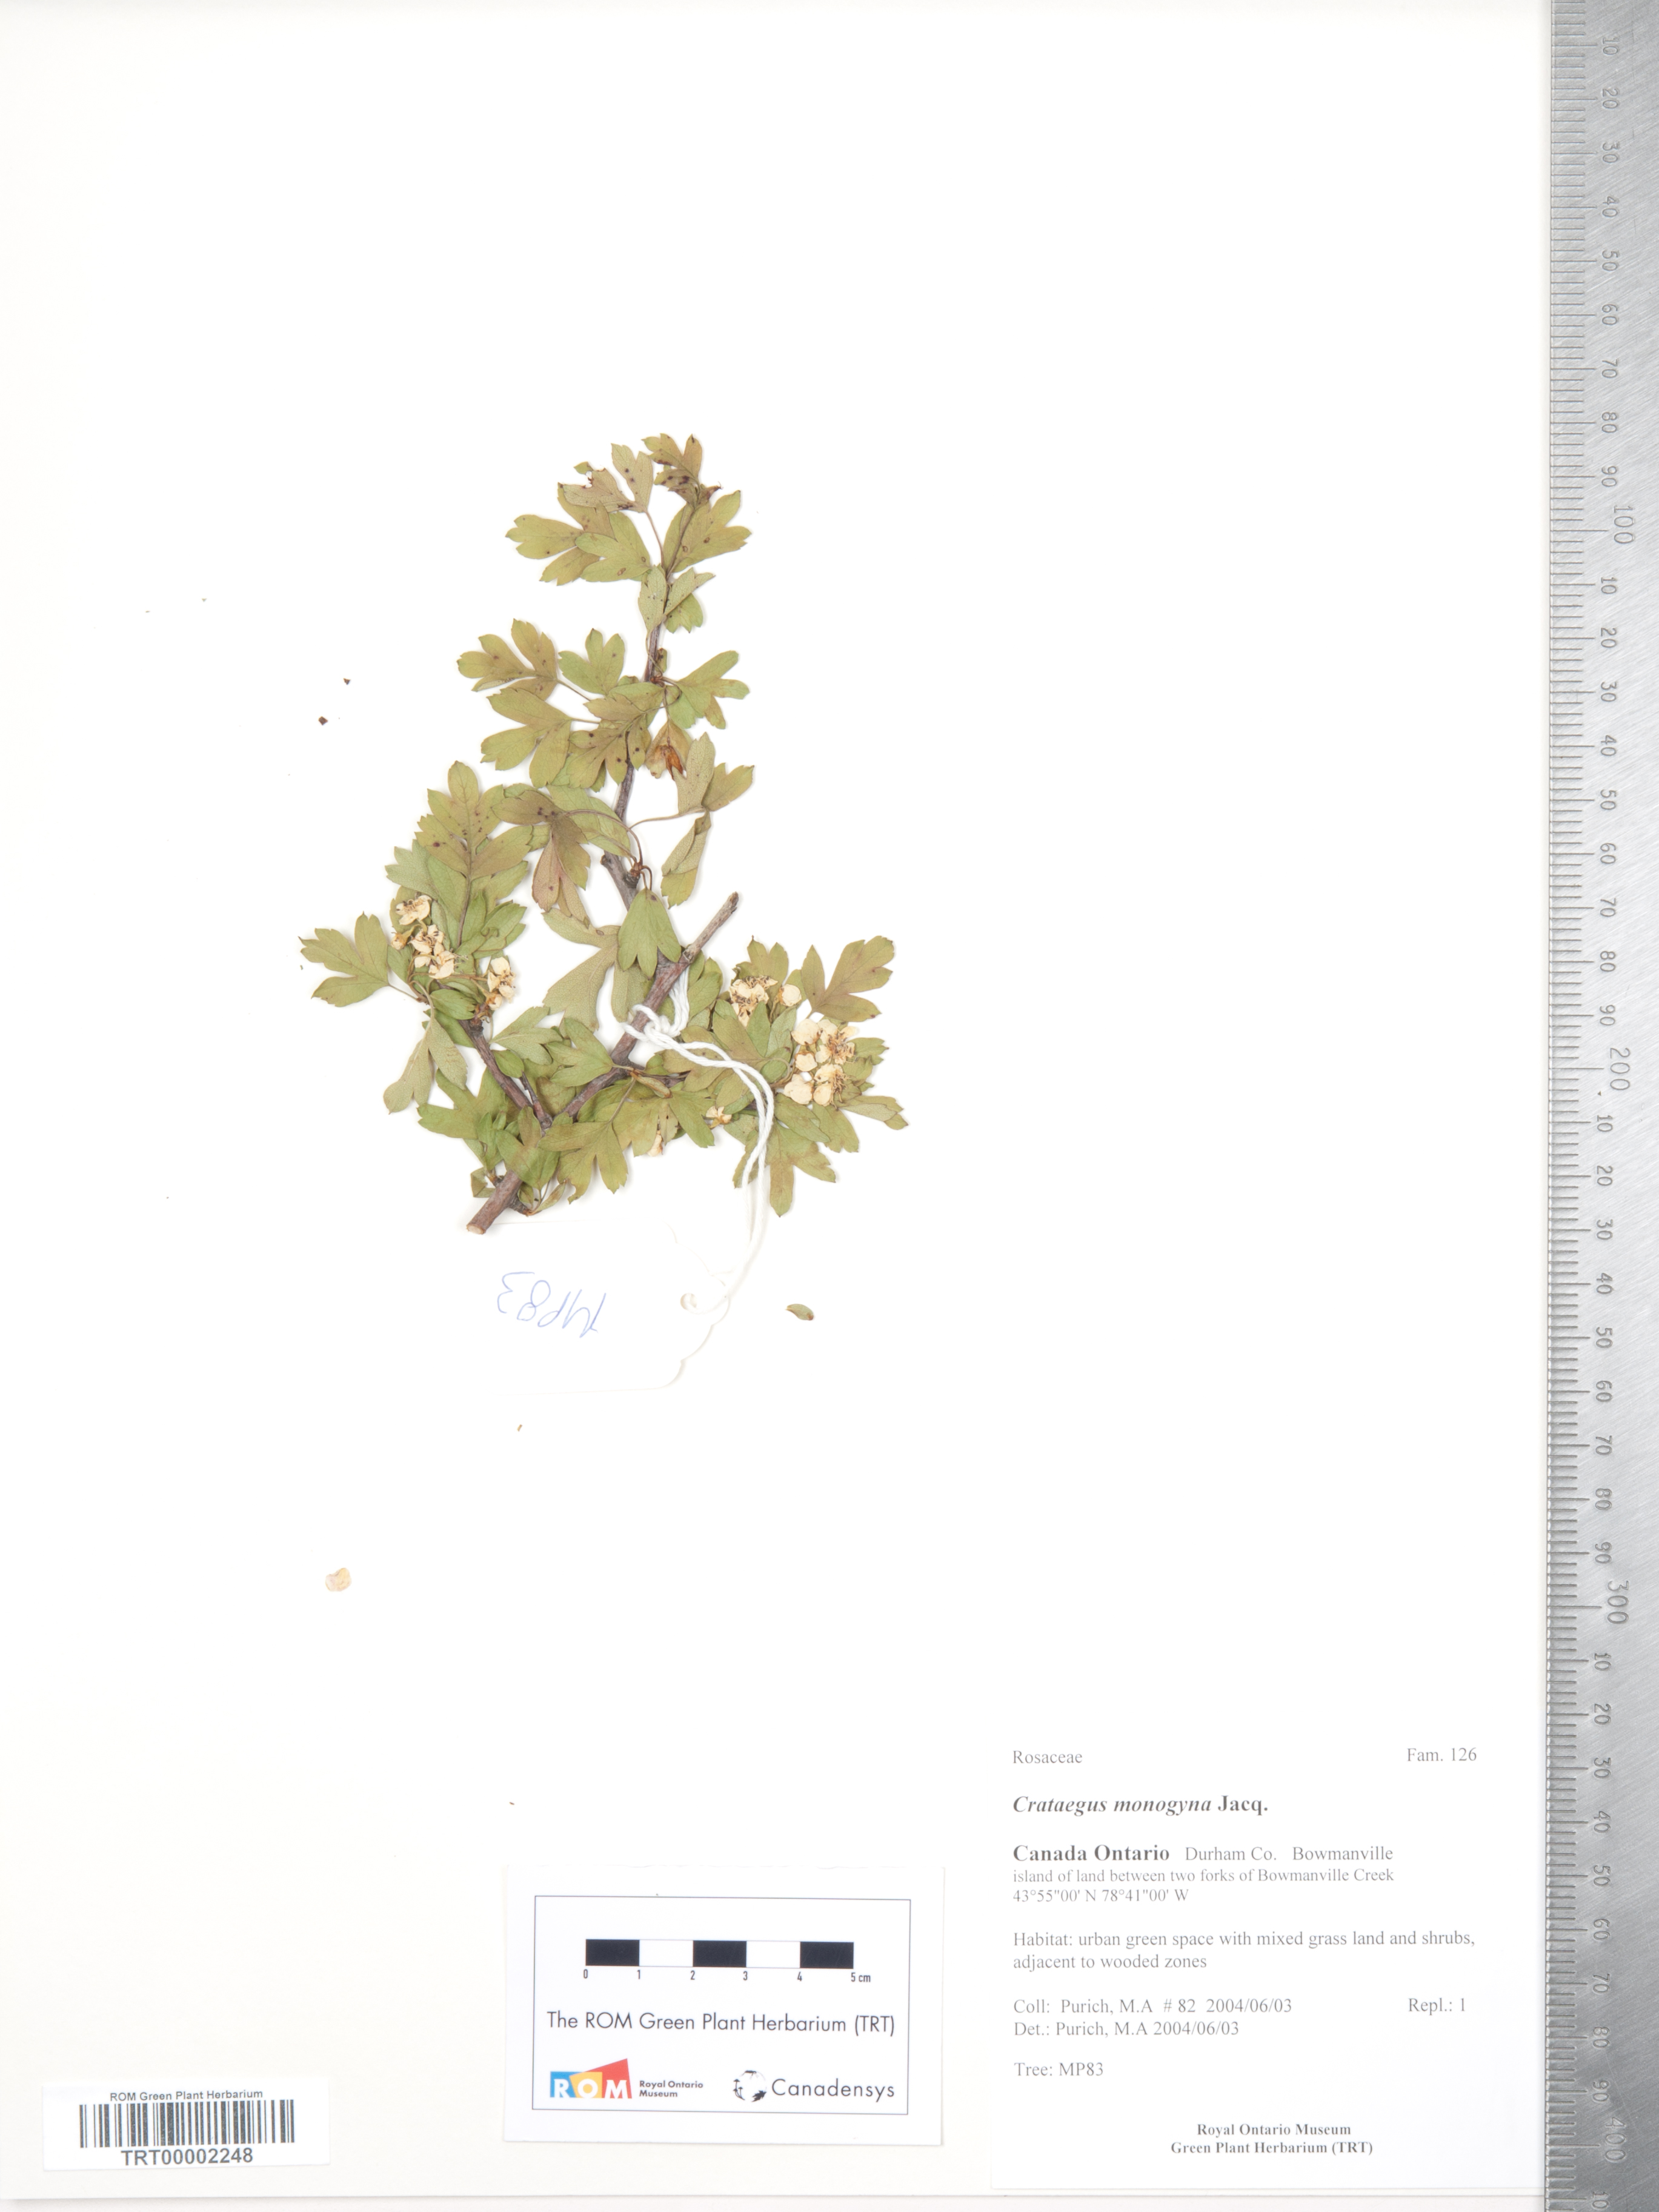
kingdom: Plantae
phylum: Tracheophyta
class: Magnoliopsida
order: Rosales
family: Rosaceae
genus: Crataegus
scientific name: Crataegus monogyna
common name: Hawthorn
